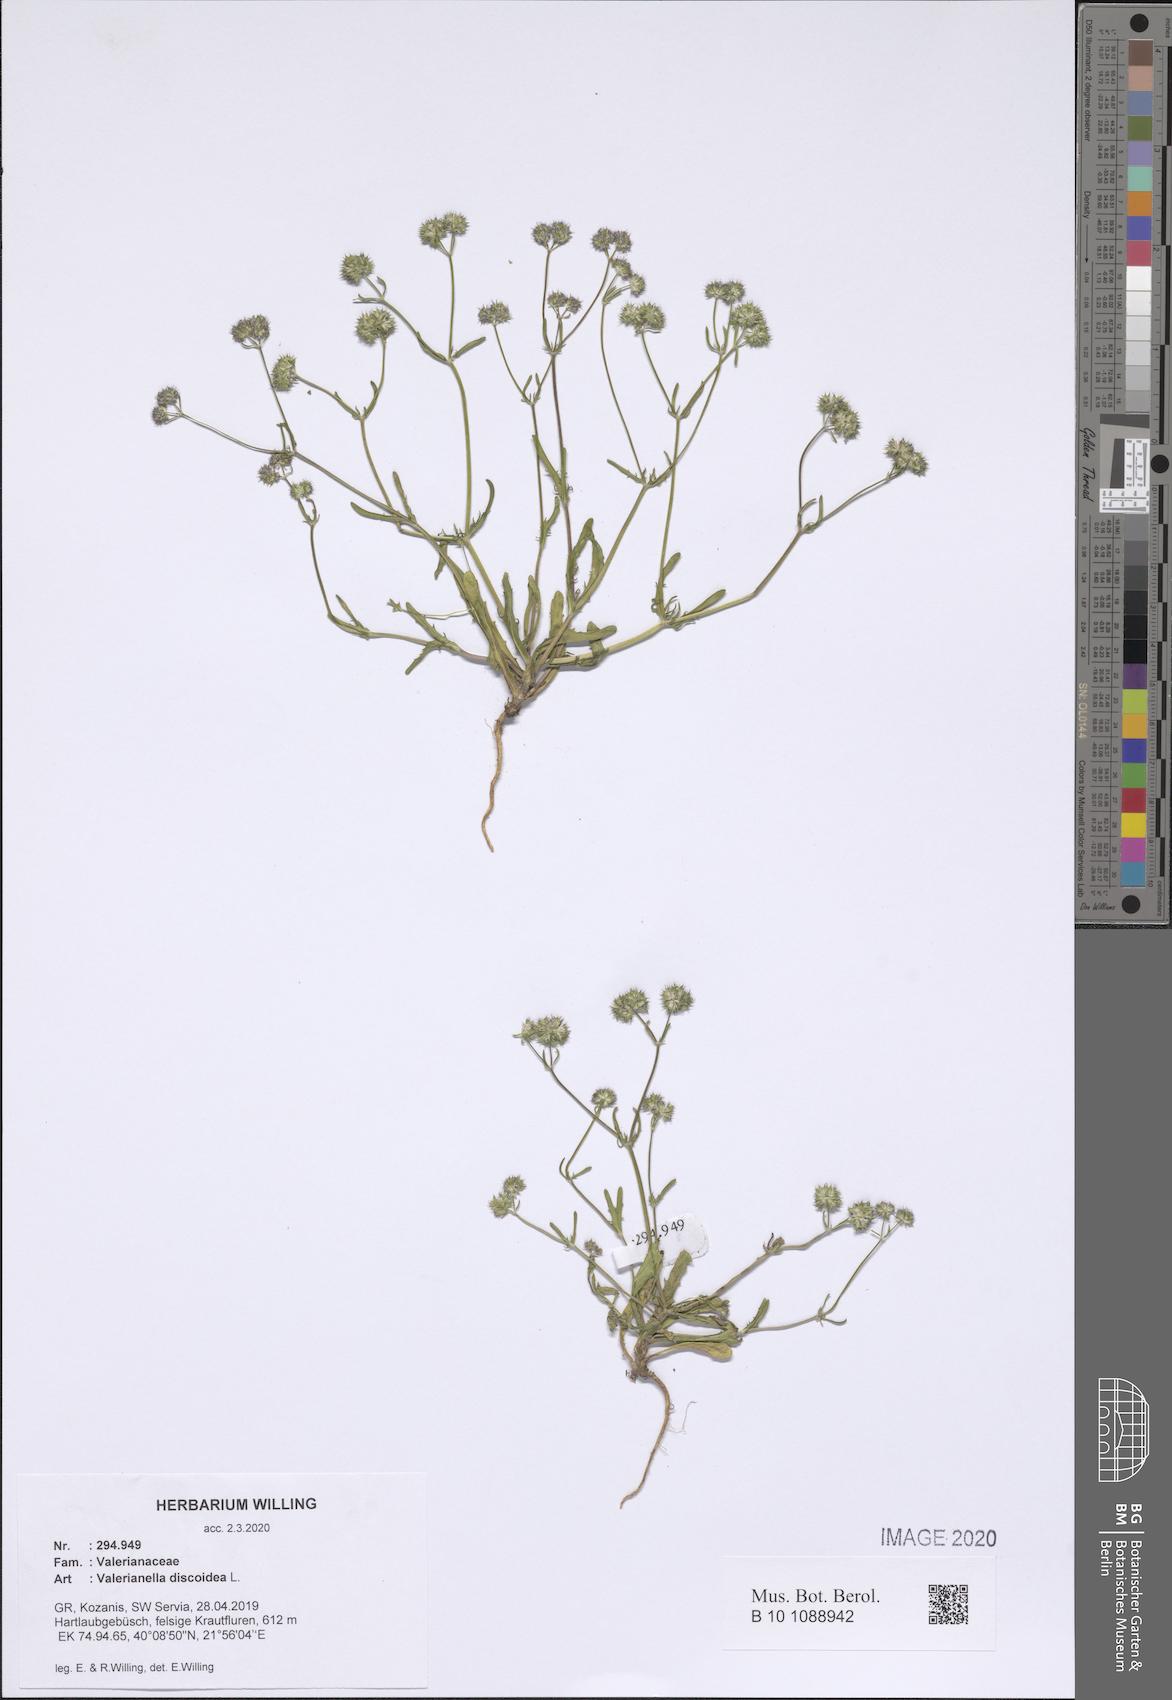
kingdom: Plantae
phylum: Tracheophyta
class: Magnoliopsida
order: Dipsacales
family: Caprifoliaceae
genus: Valerianella
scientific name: Valerianella discoidea
